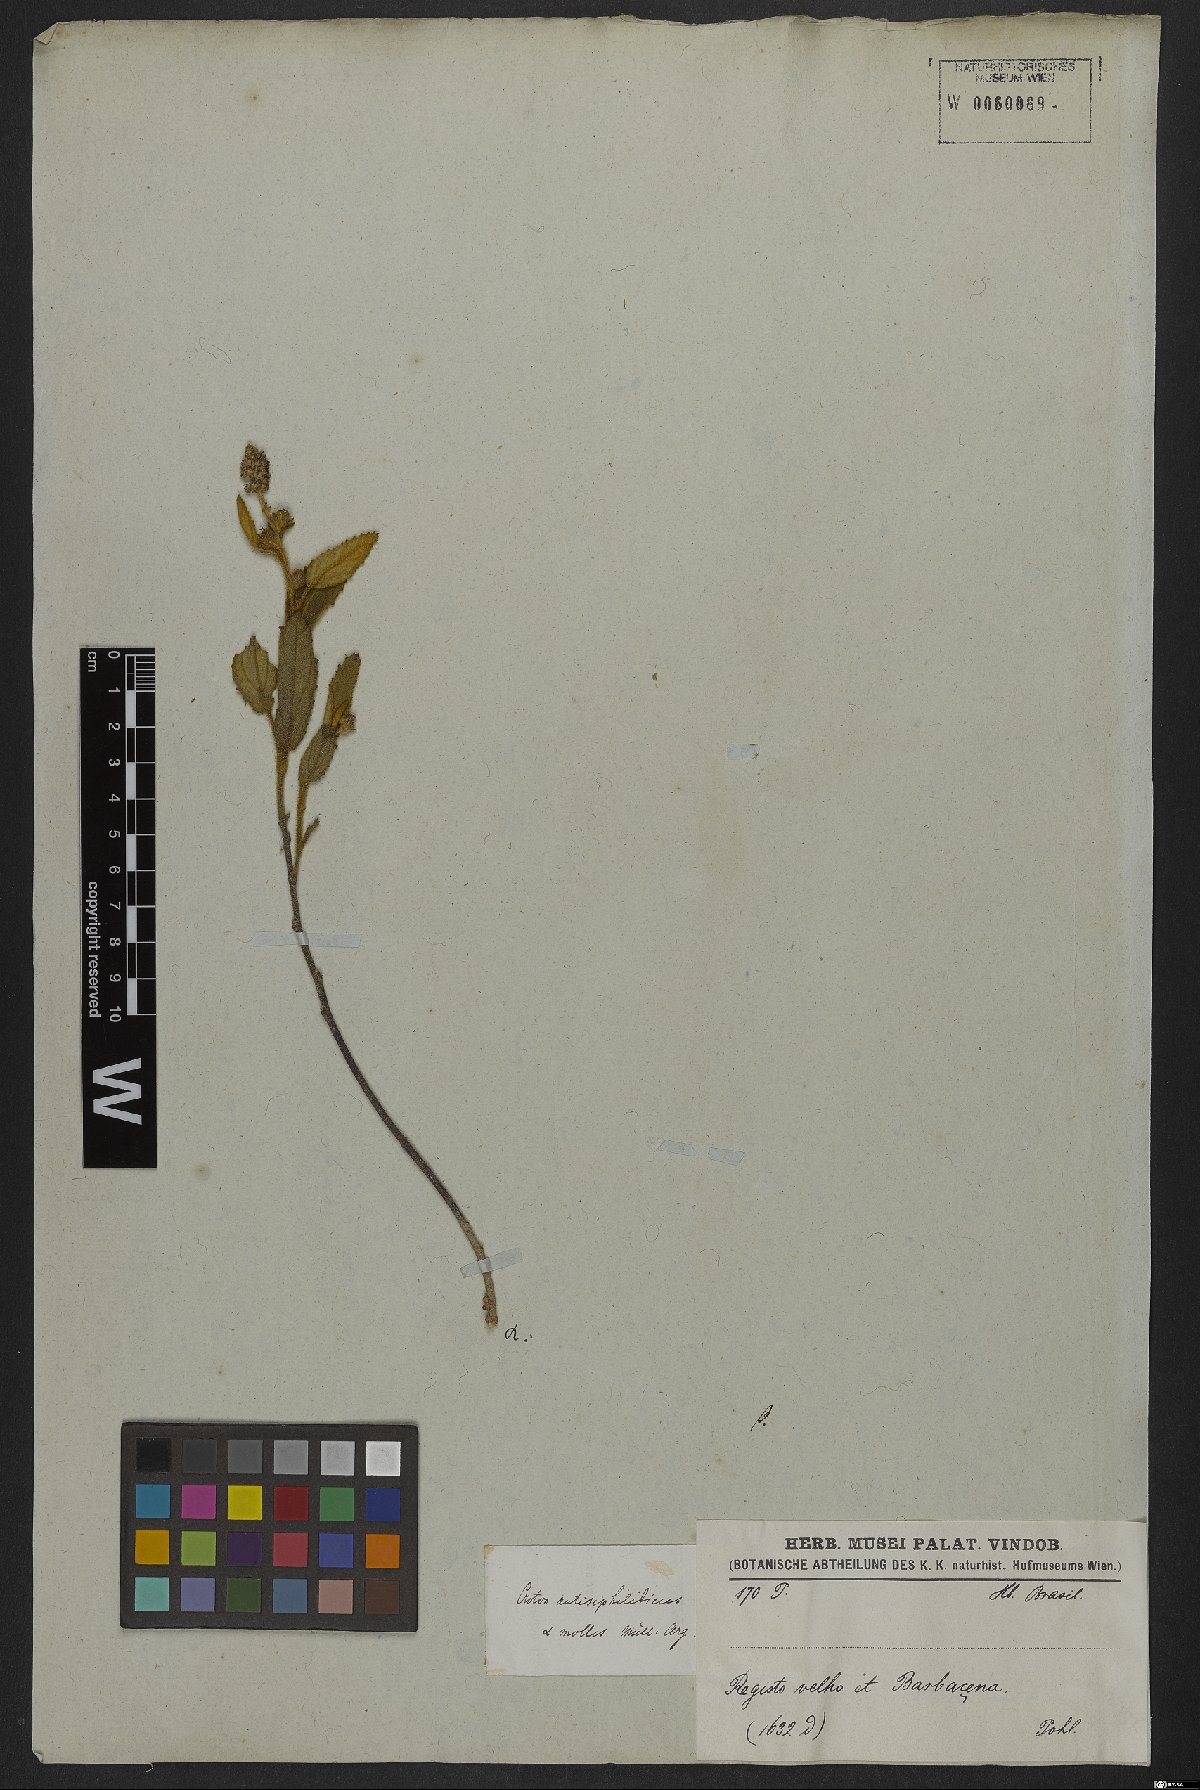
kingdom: Plantae
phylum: Tracheophyta
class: Magnoliopsida
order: Malpighiales
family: Euphorbiaceae
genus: Croton
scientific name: Croton antisyphiliticus
